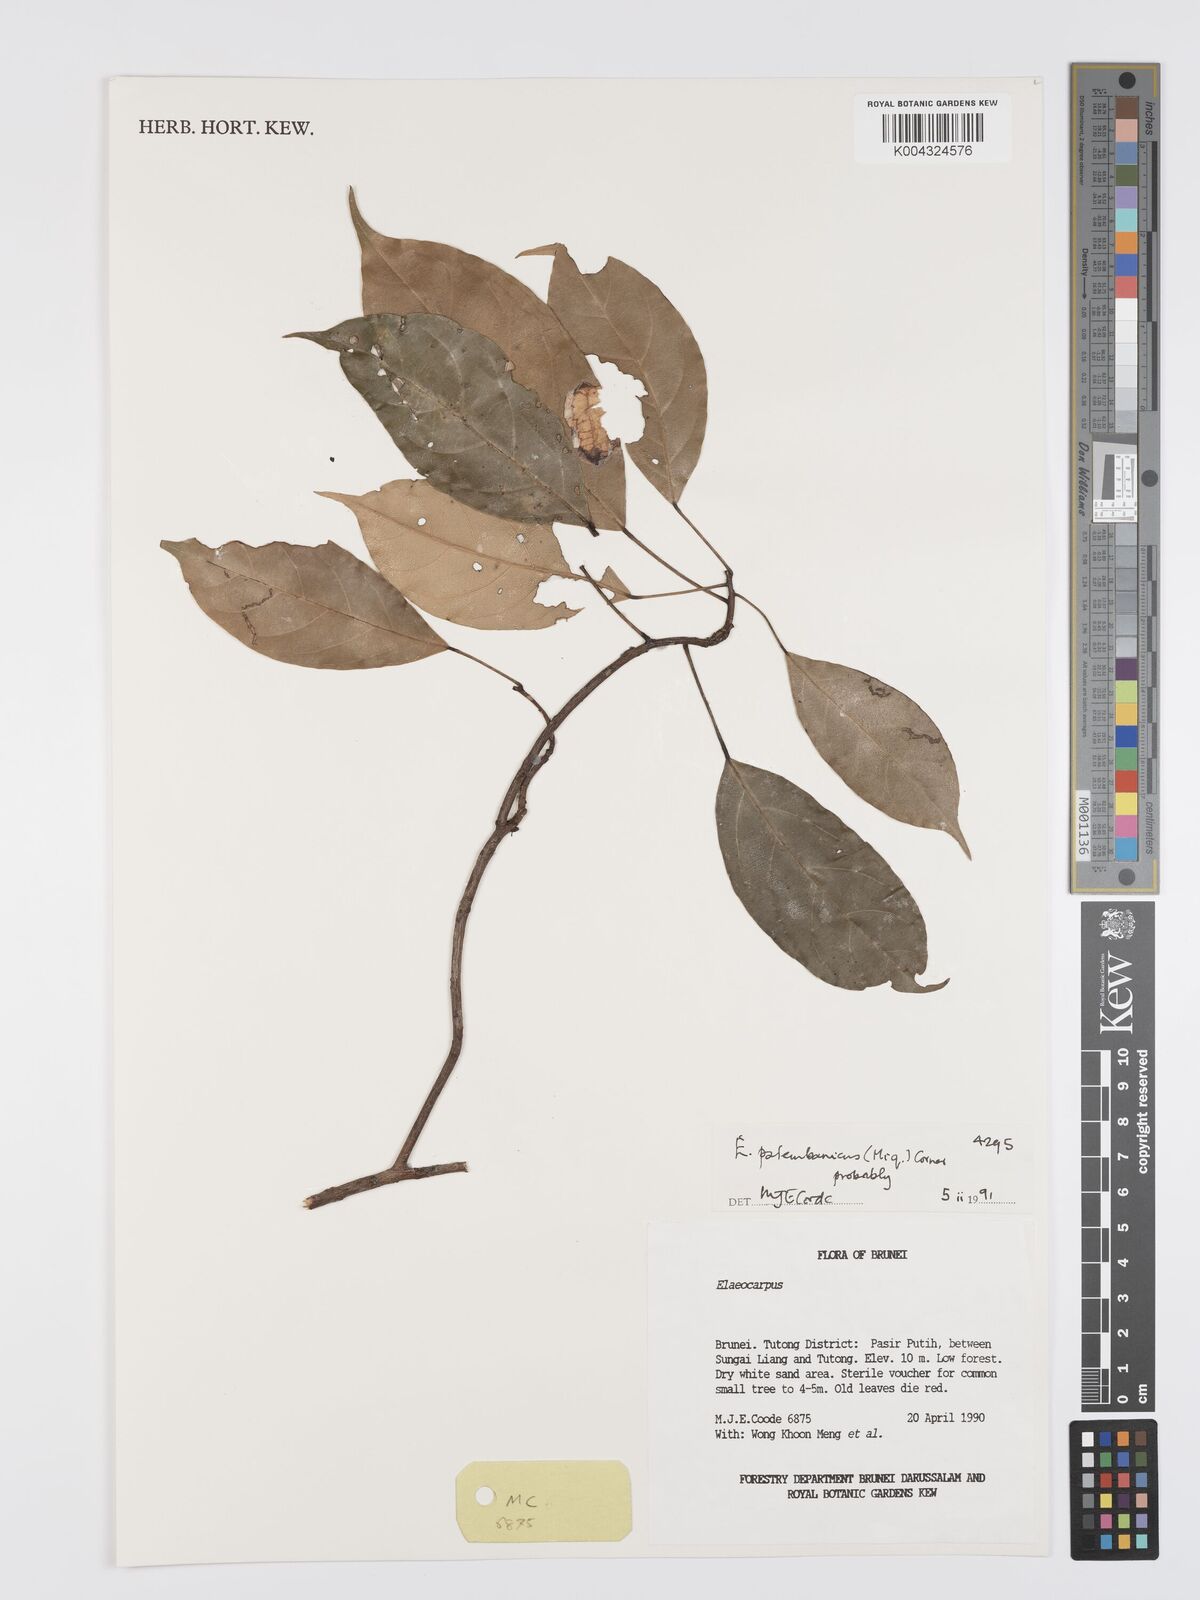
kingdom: Plantae
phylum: Tracheophyta
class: Magnoliopsida
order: Oxalidales
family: Elaeocarpaceae
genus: Elaeocarpus
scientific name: Elaeocarpus palembanicus
